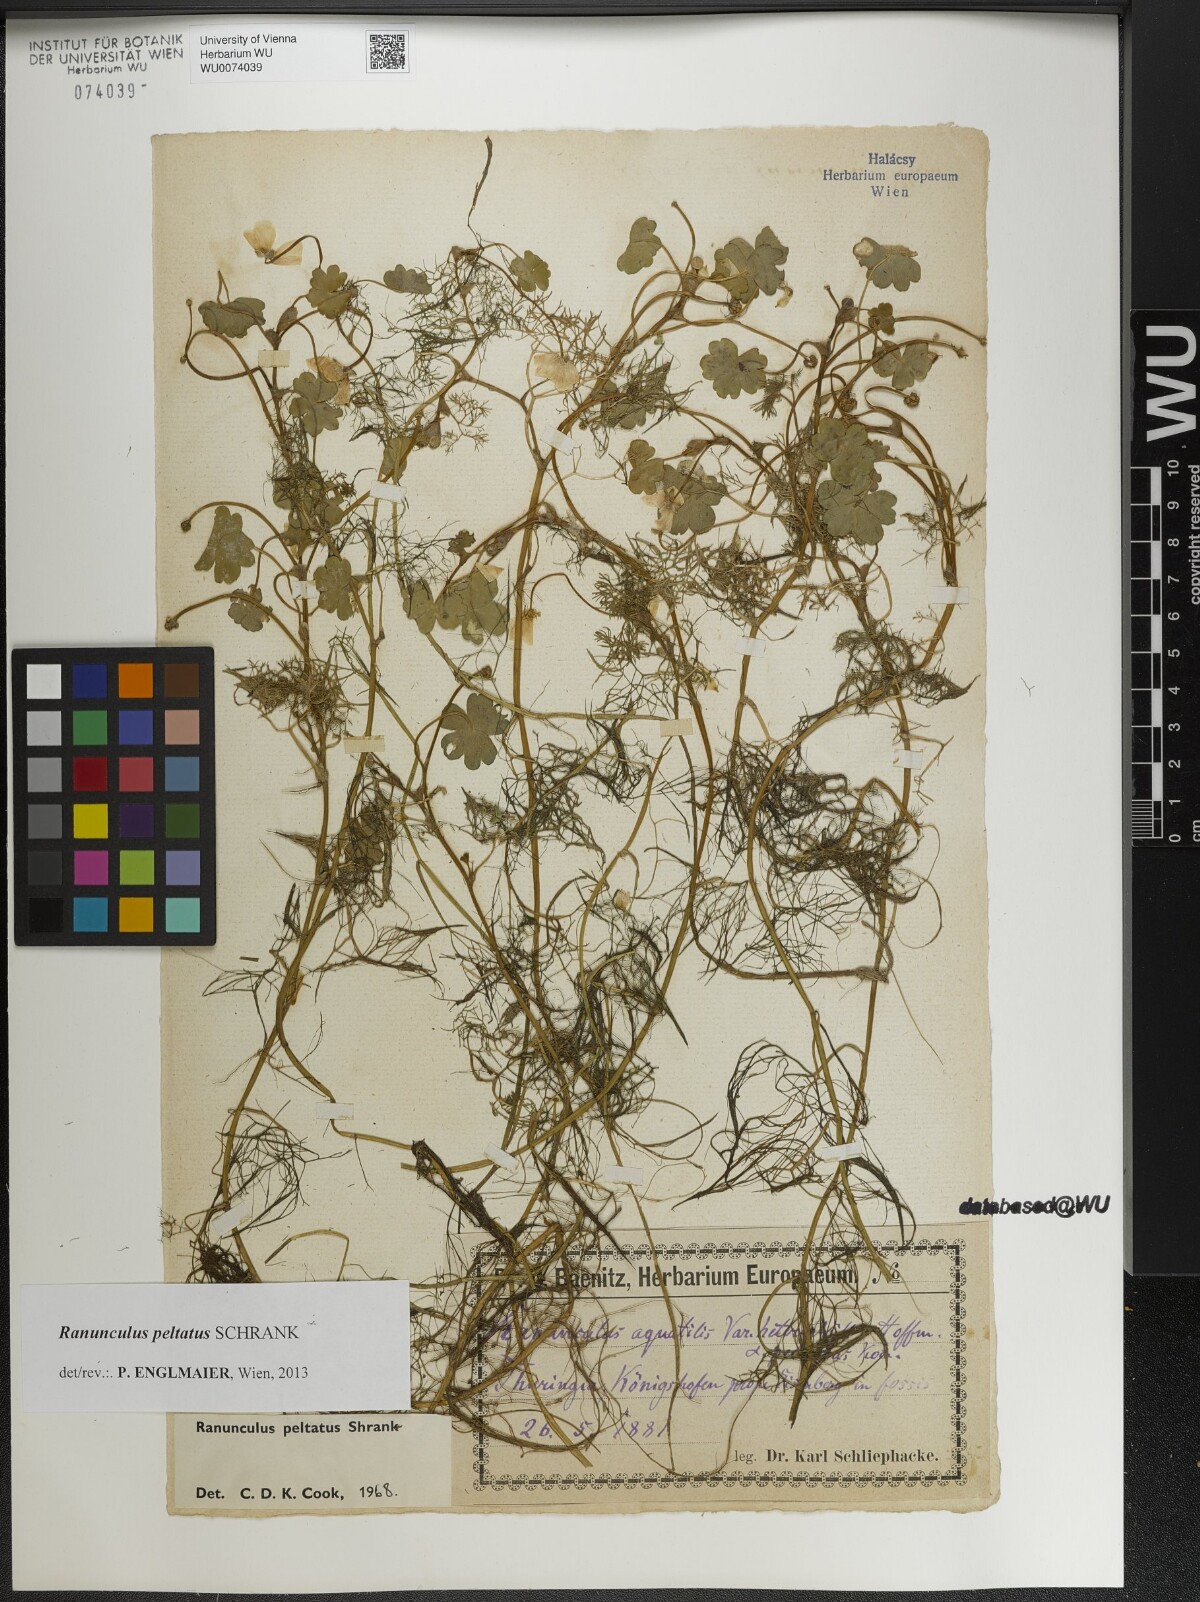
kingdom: Plantae
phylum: Tracheophyta
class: Magnoliopsida
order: Ranunculales
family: Ranunculaceae
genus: Ranunculus
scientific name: Ranunculus peltatus
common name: Pond water-crowfoot
